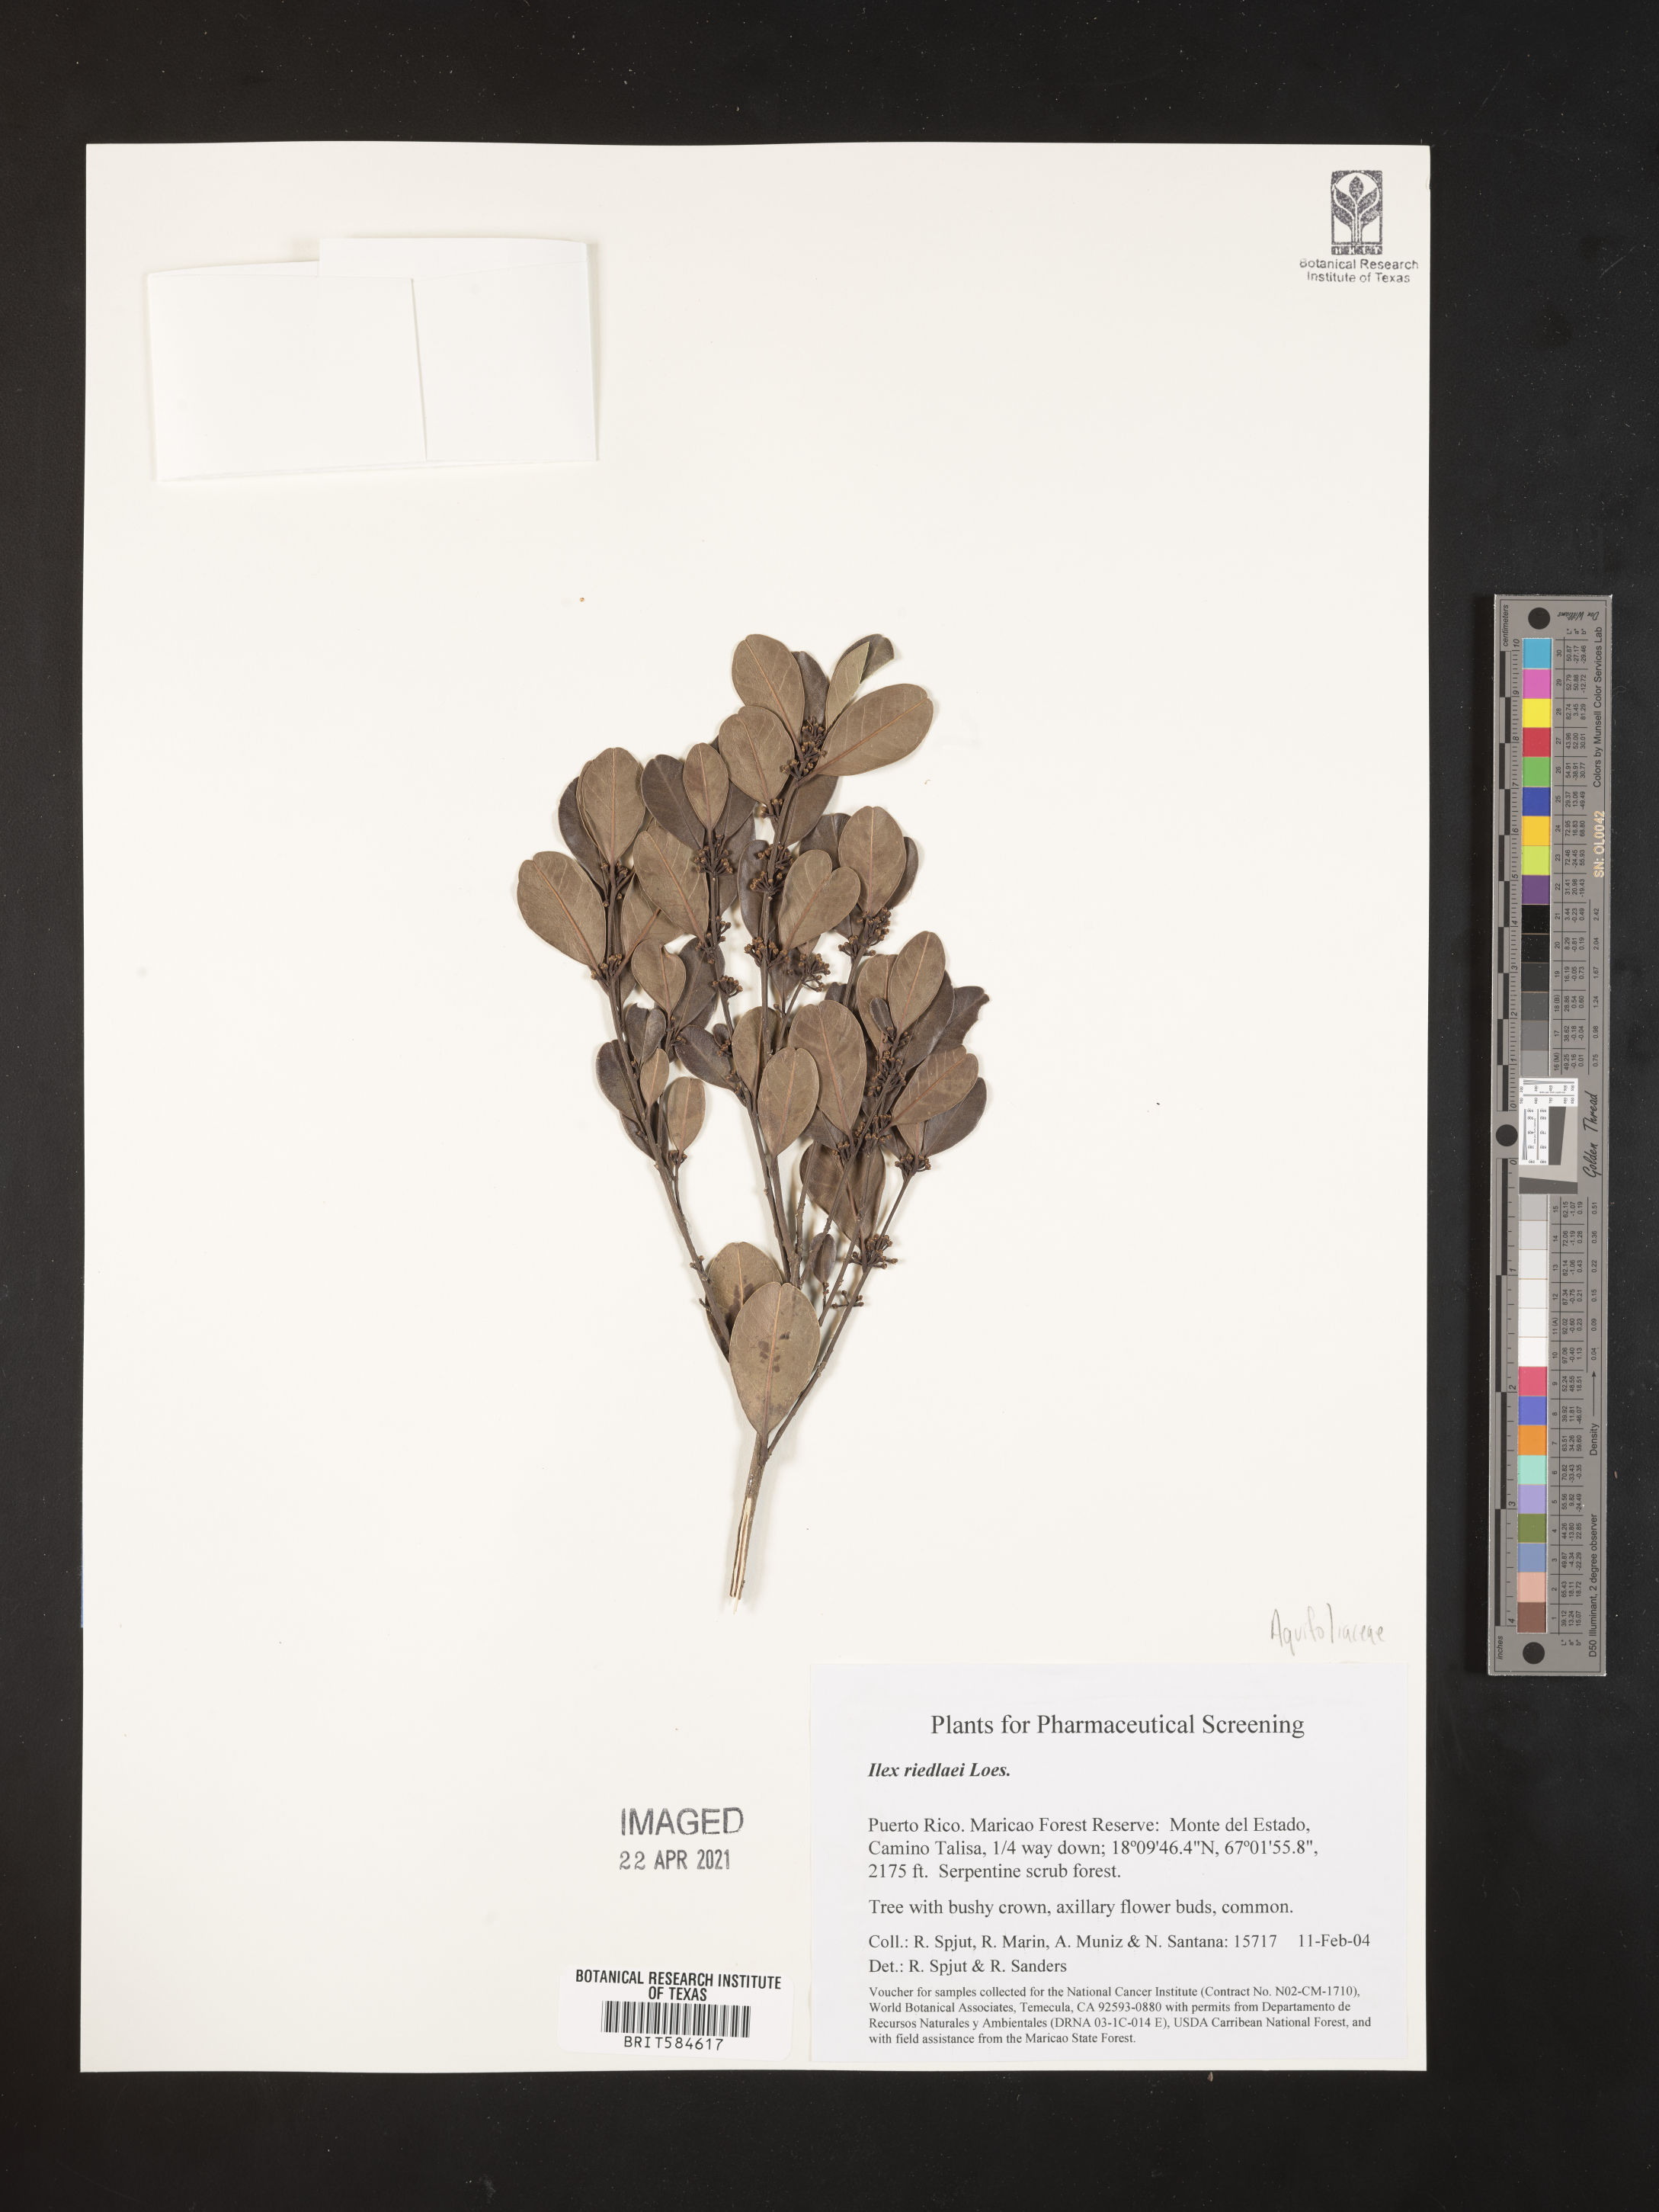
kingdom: Plantae
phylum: Tracheophyta
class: Magnoliopsida
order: Aquifoliales
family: Aquifoliaceae
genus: Ilex
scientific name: Ilex nitida
